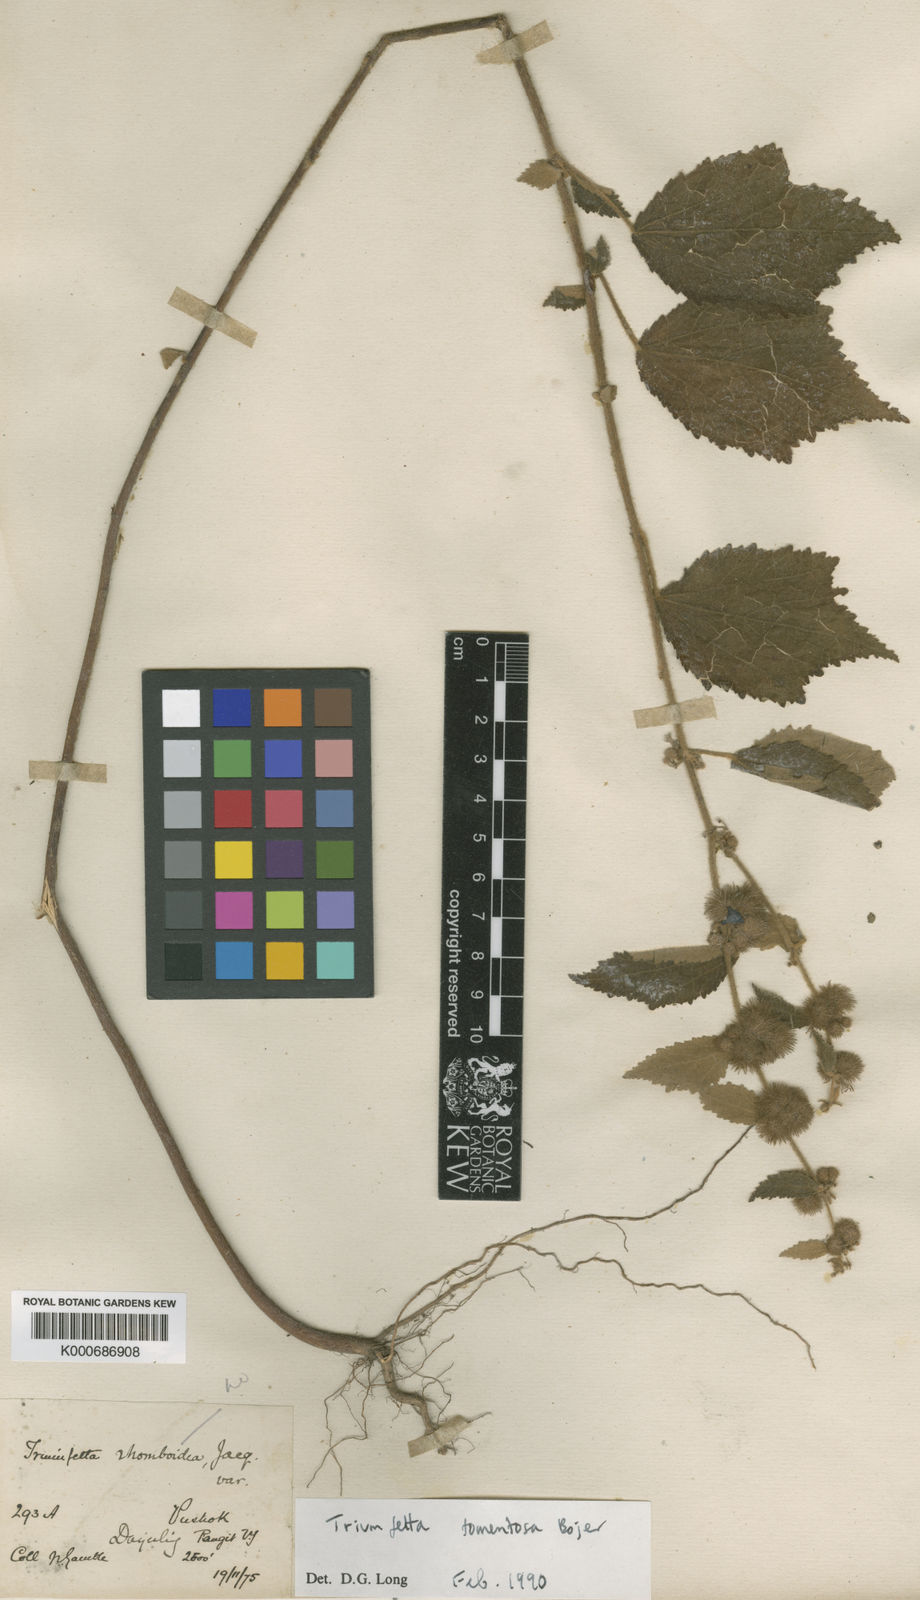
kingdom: Plantae
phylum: Tracheophyta
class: Magnoliopsida
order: Malvales
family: Malvaceae
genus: Triumfetta
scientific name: Triumfetta obliqua
